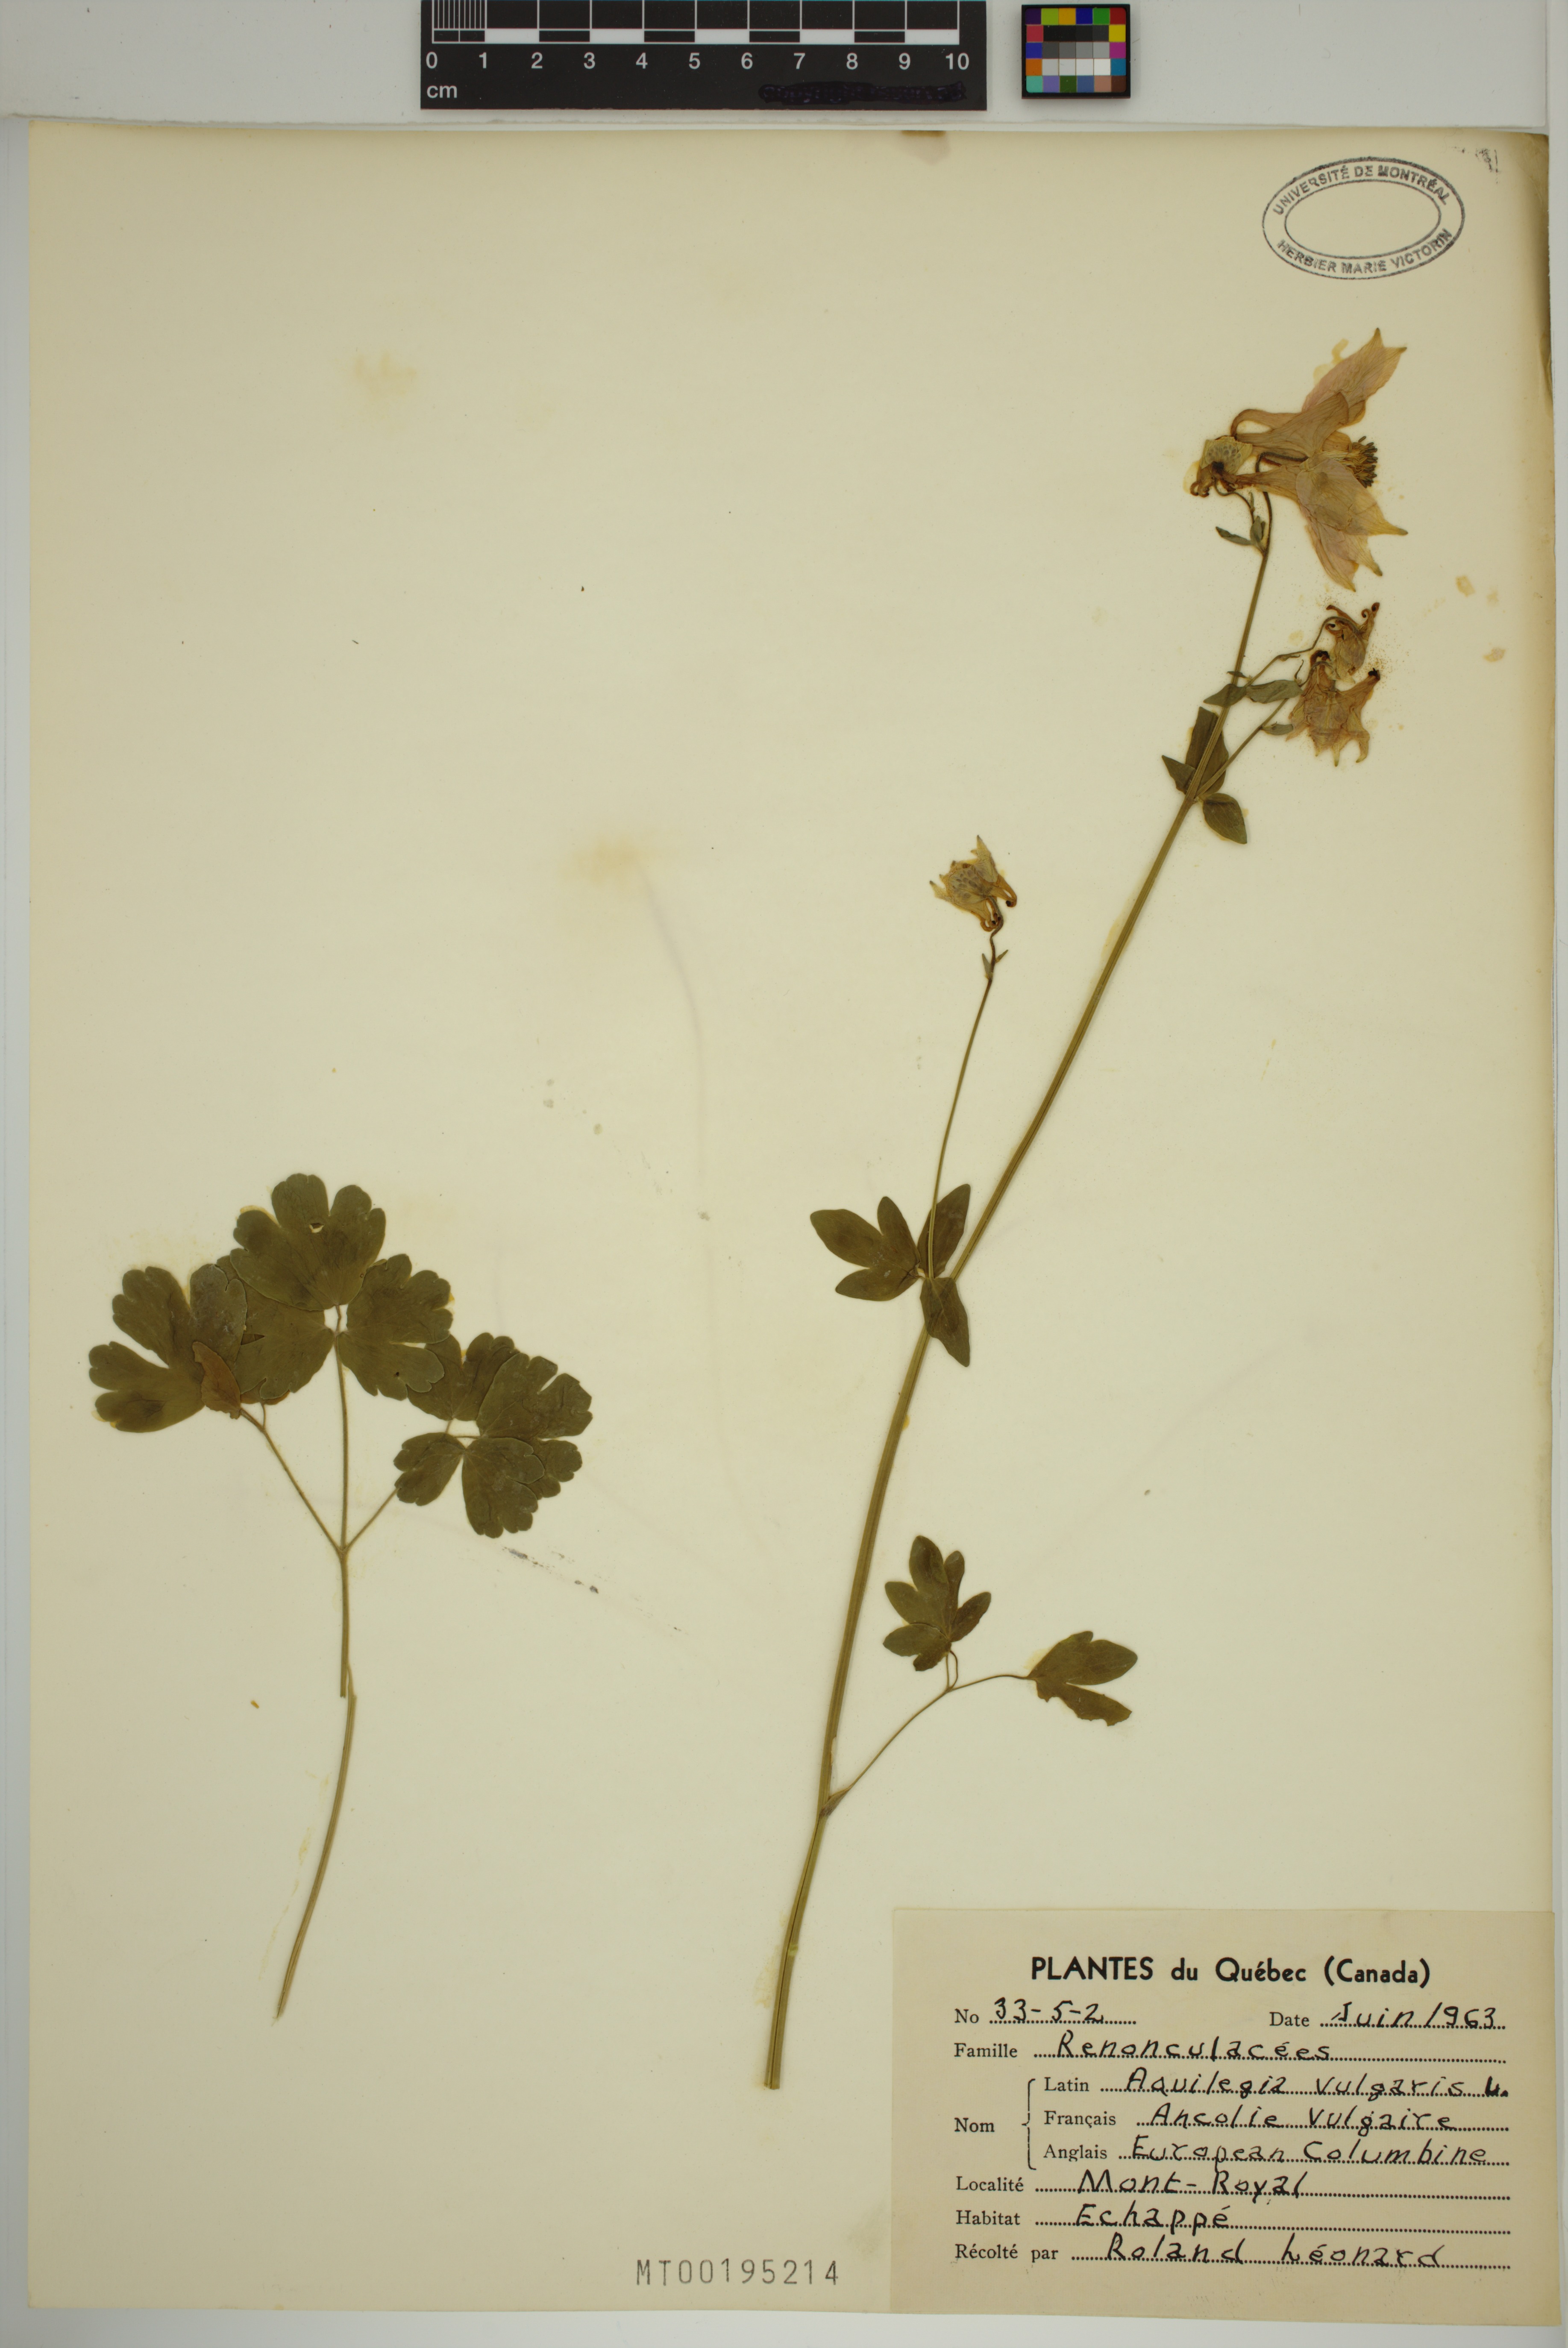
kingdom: Plantae
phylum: Tracheophyta
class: Magnoliopsida
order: Ranunculales
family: Ranunculaceae
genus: Aquilegia
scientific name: Aquilegia vulgaris
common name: Columbine
